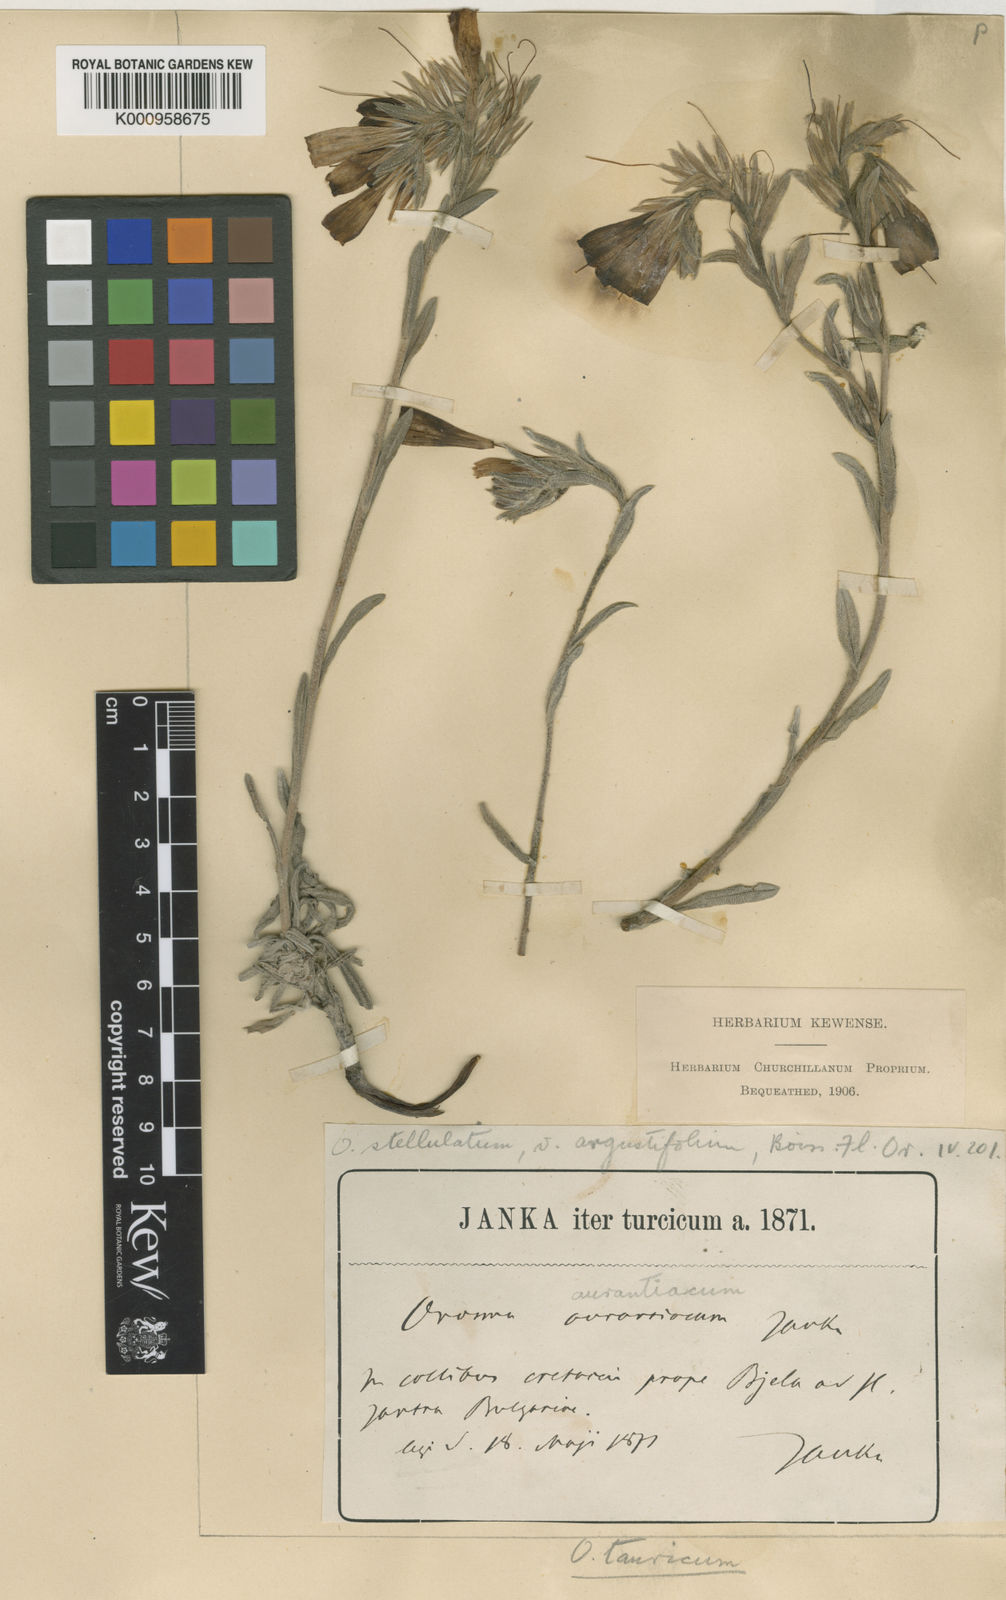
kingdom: Plantae
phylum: Tracheophyta
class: Magnoliopsida
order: Boraginales
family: Boraginaceae
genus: Onosma
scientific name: Onosma cinerea
